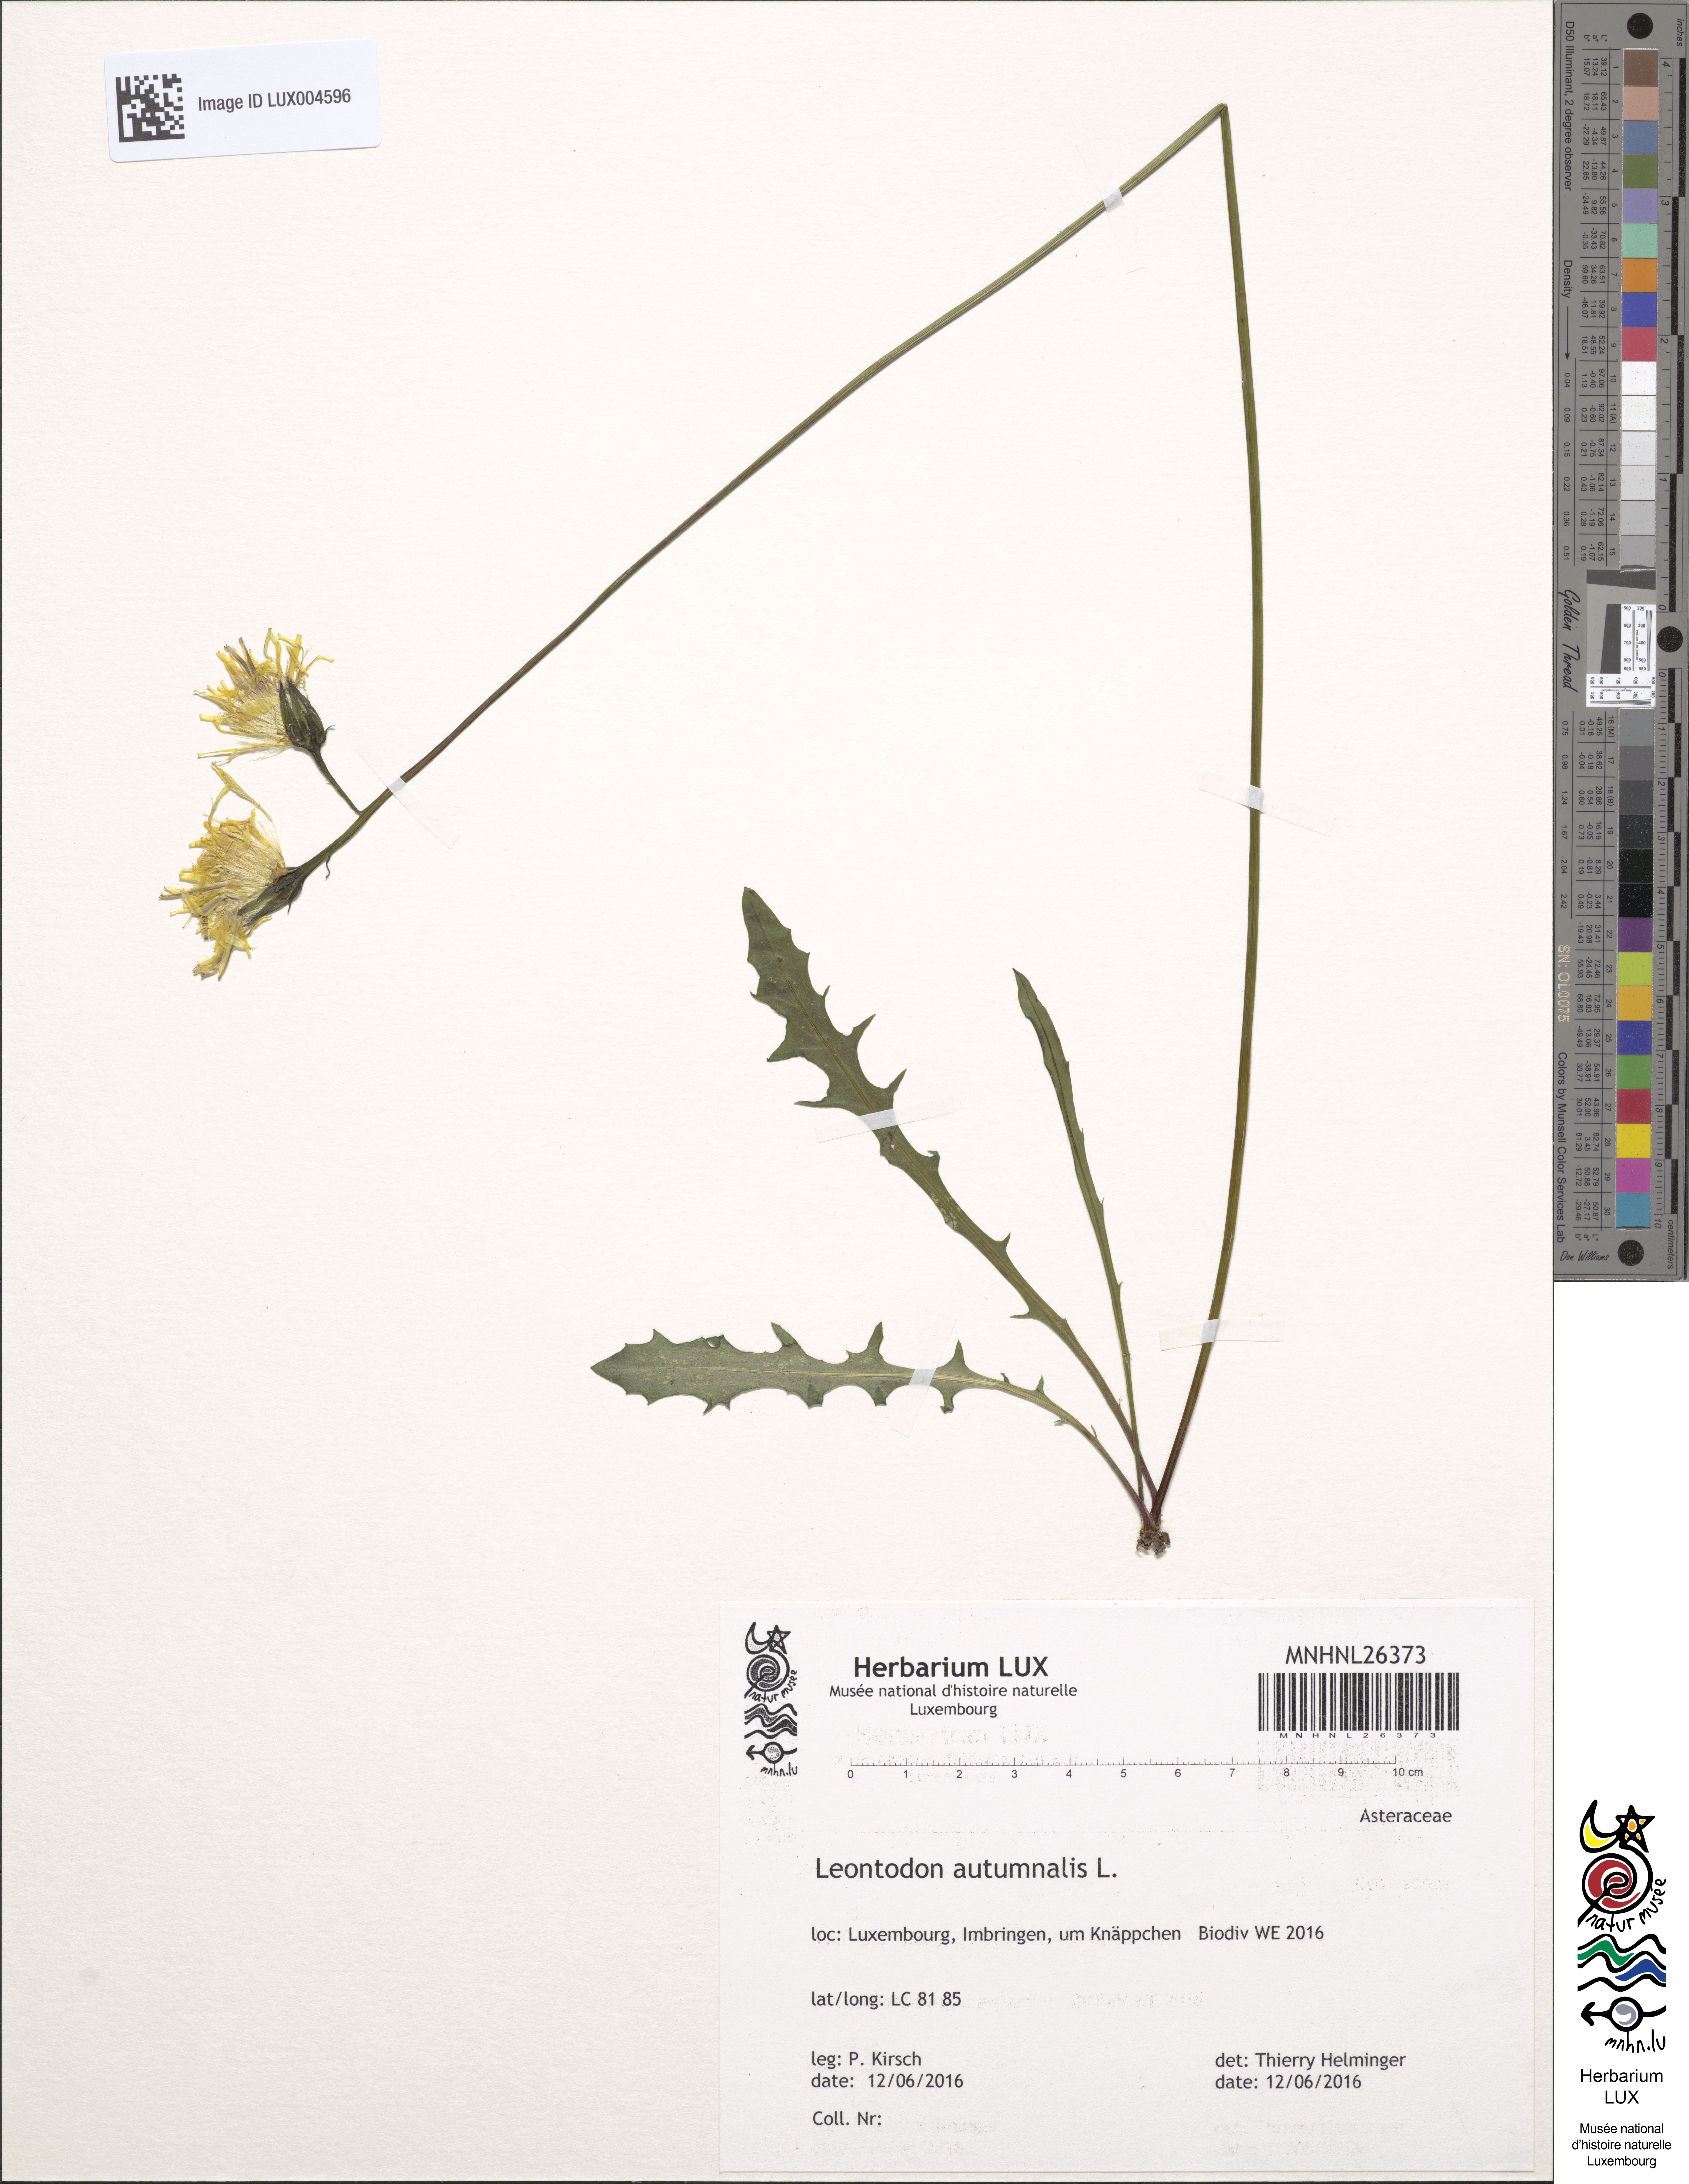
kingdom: Plantae
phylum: Tracheophyta
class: Magnoliopsida
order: Asterales
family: Asteraceae
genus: Scorzoneroides
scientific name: Scorzoneroides autumnalis
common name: Autumn hawkbit
